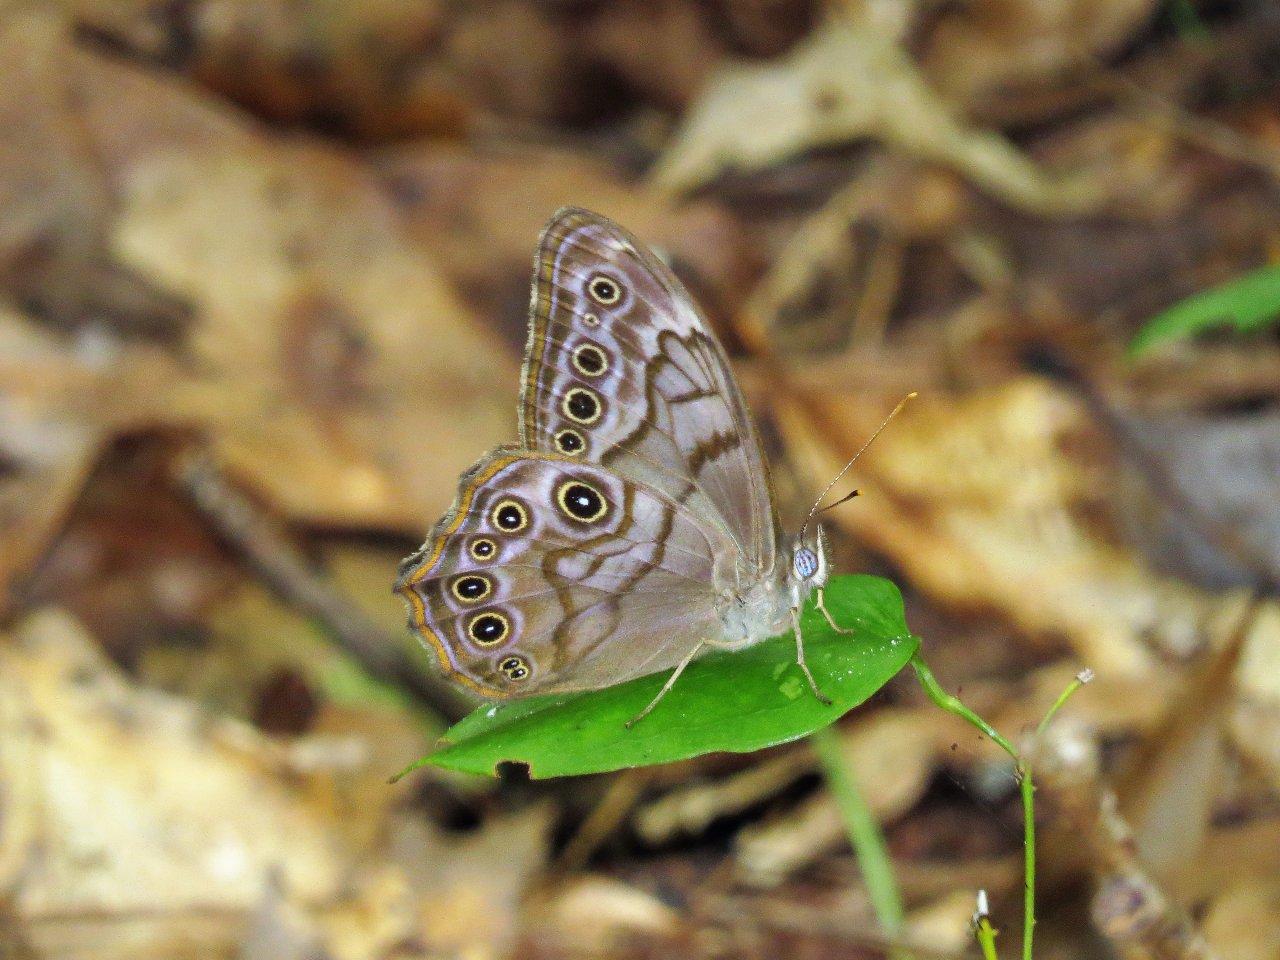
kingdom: Animalia
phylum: Arthropoda
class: Insecta
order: Lepidoptera
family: Nymphalidae
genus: Lethe
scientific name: Lethe creola
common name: Creole Pearly-Eye
